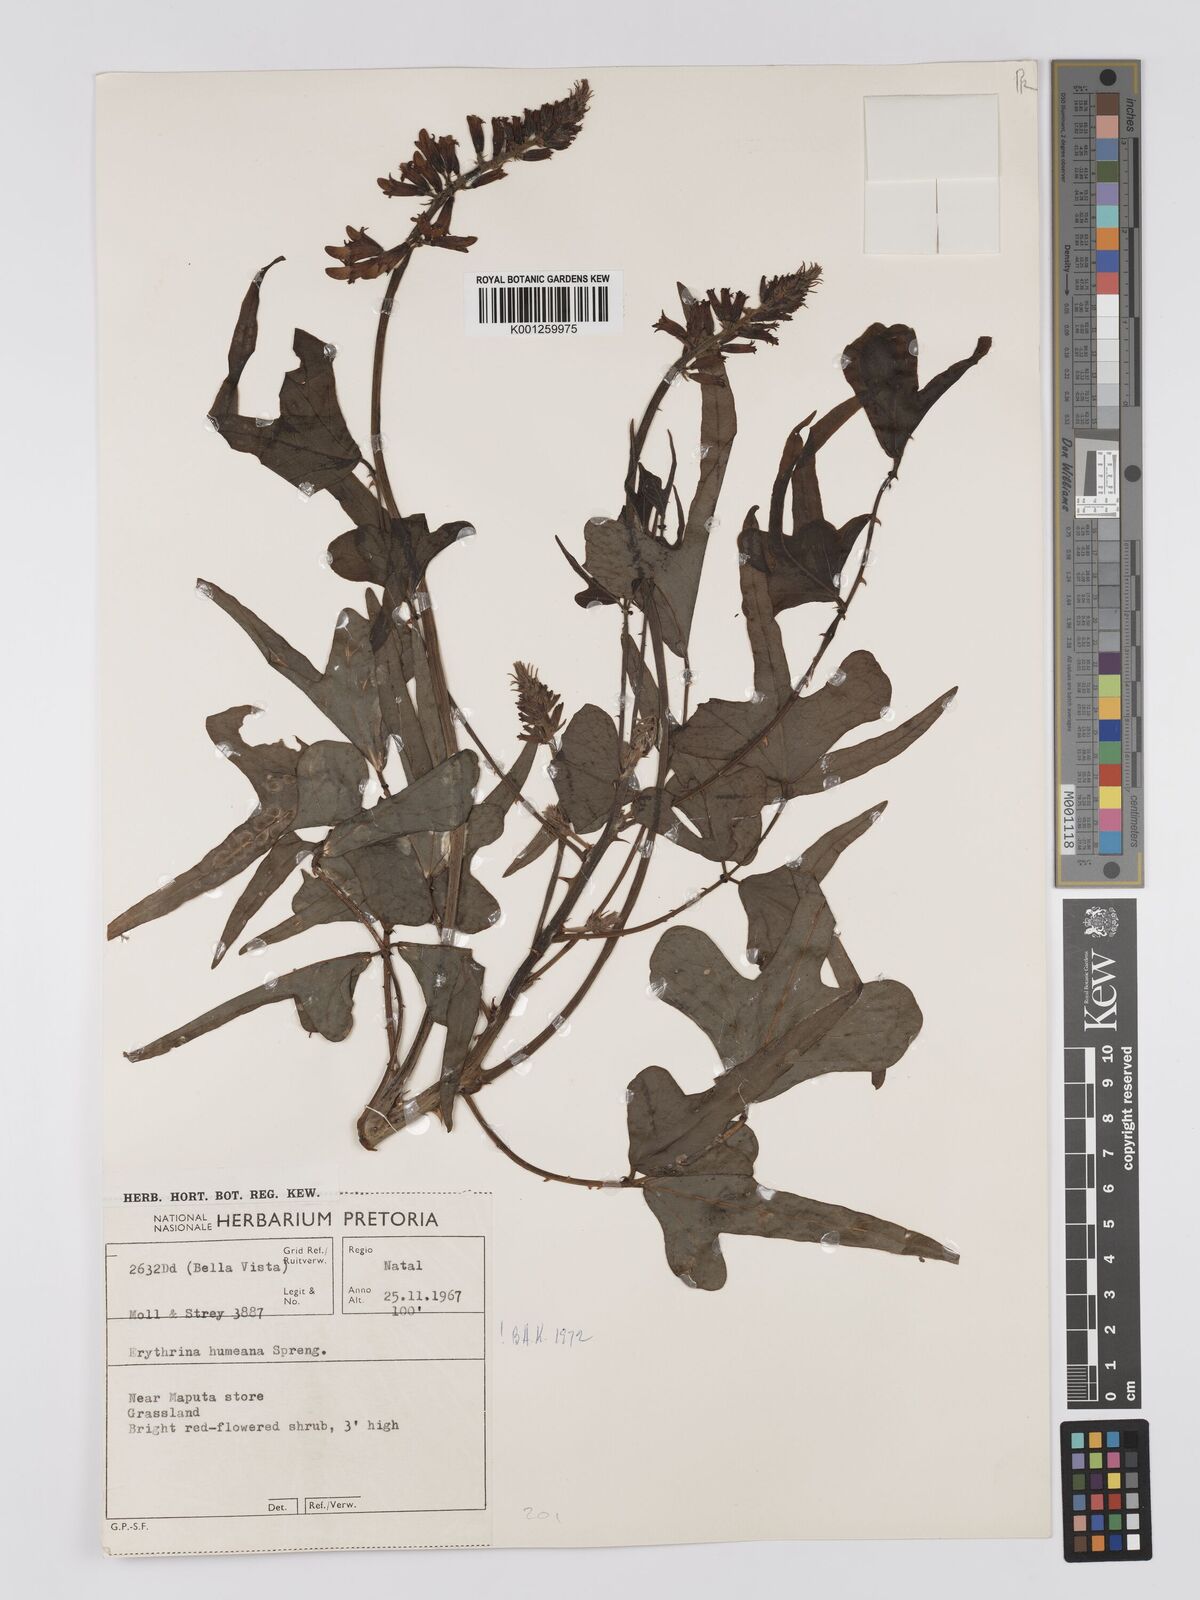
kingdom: Plantae
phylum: Tracheophyta
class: Magnoliopsida
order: Fabales
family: Fabaceae
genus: Erythrina
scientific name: Erythrina humeana
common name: Dwarf coral tree
